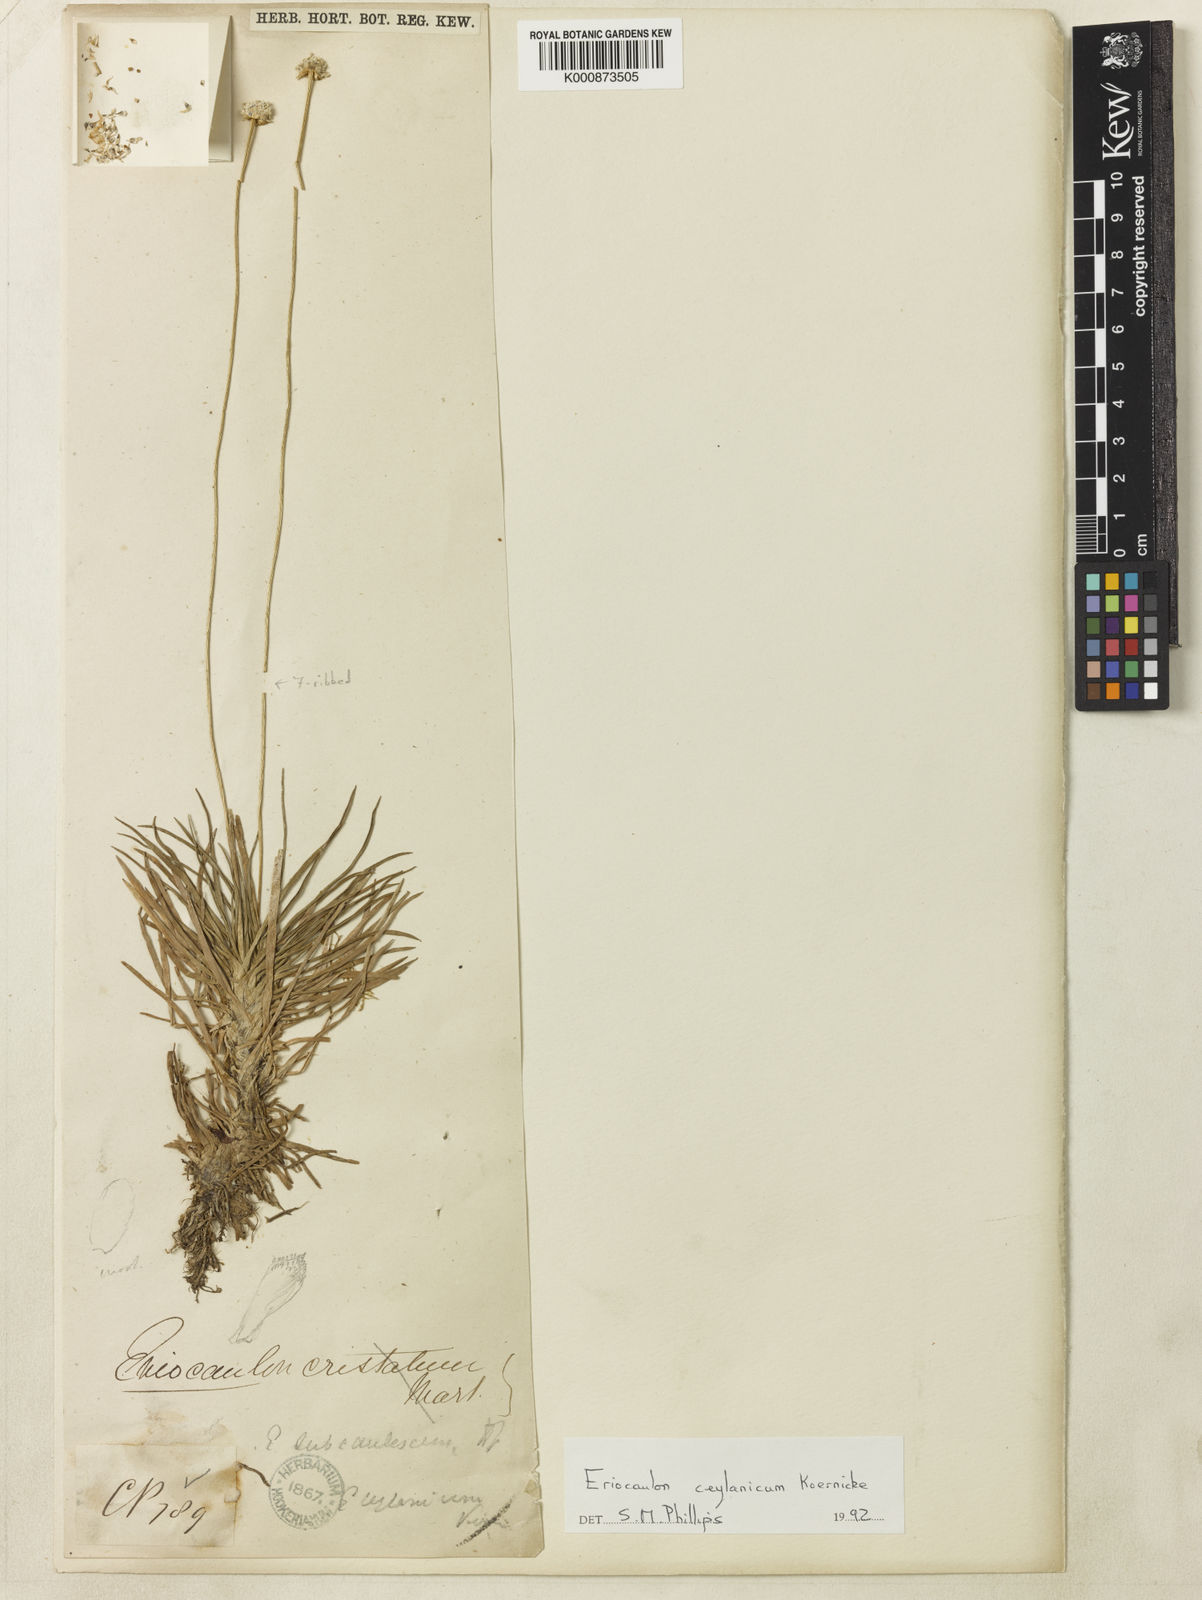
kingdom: Plantae
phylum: Tracheophyta
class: Liliopsida
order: Poales
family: Eriocaulaceae
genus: Eriocaulon
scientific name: Eriocaulon
